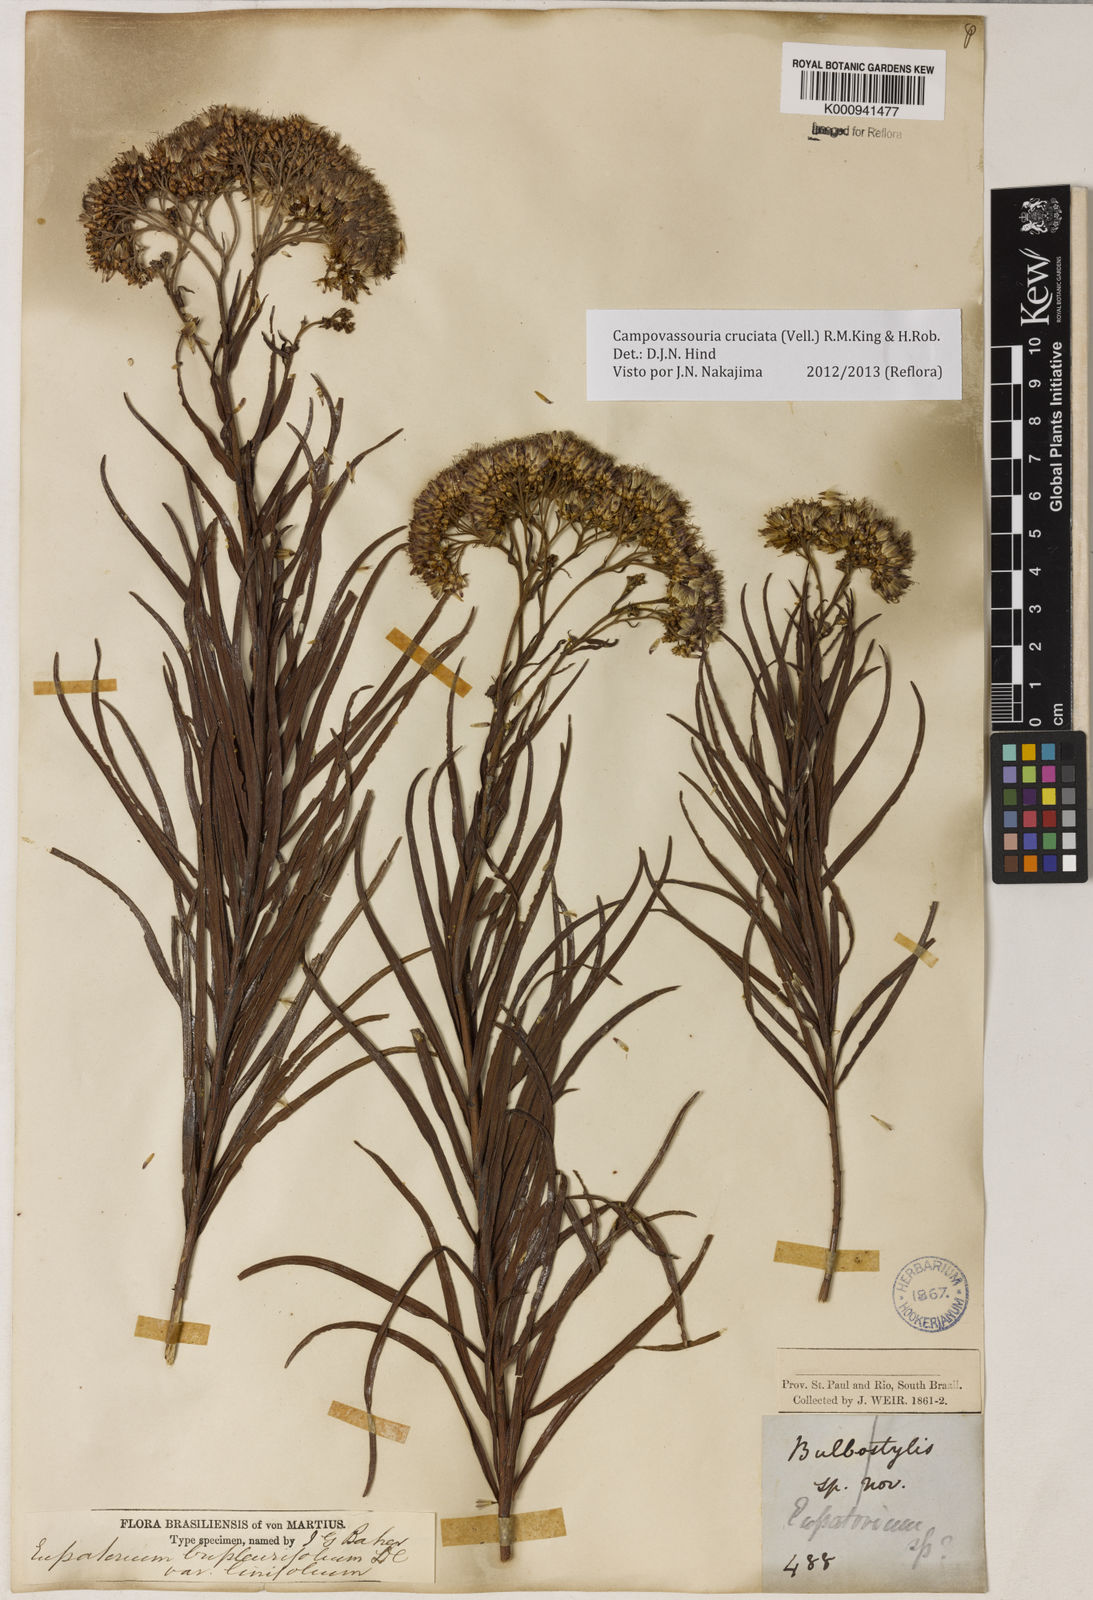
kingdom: Plantae
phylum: Tracheophyta
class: Magnoliopsida
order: Asterales
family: Asteraceae
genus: Campovassouria
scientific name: Campovassouria cruciata
